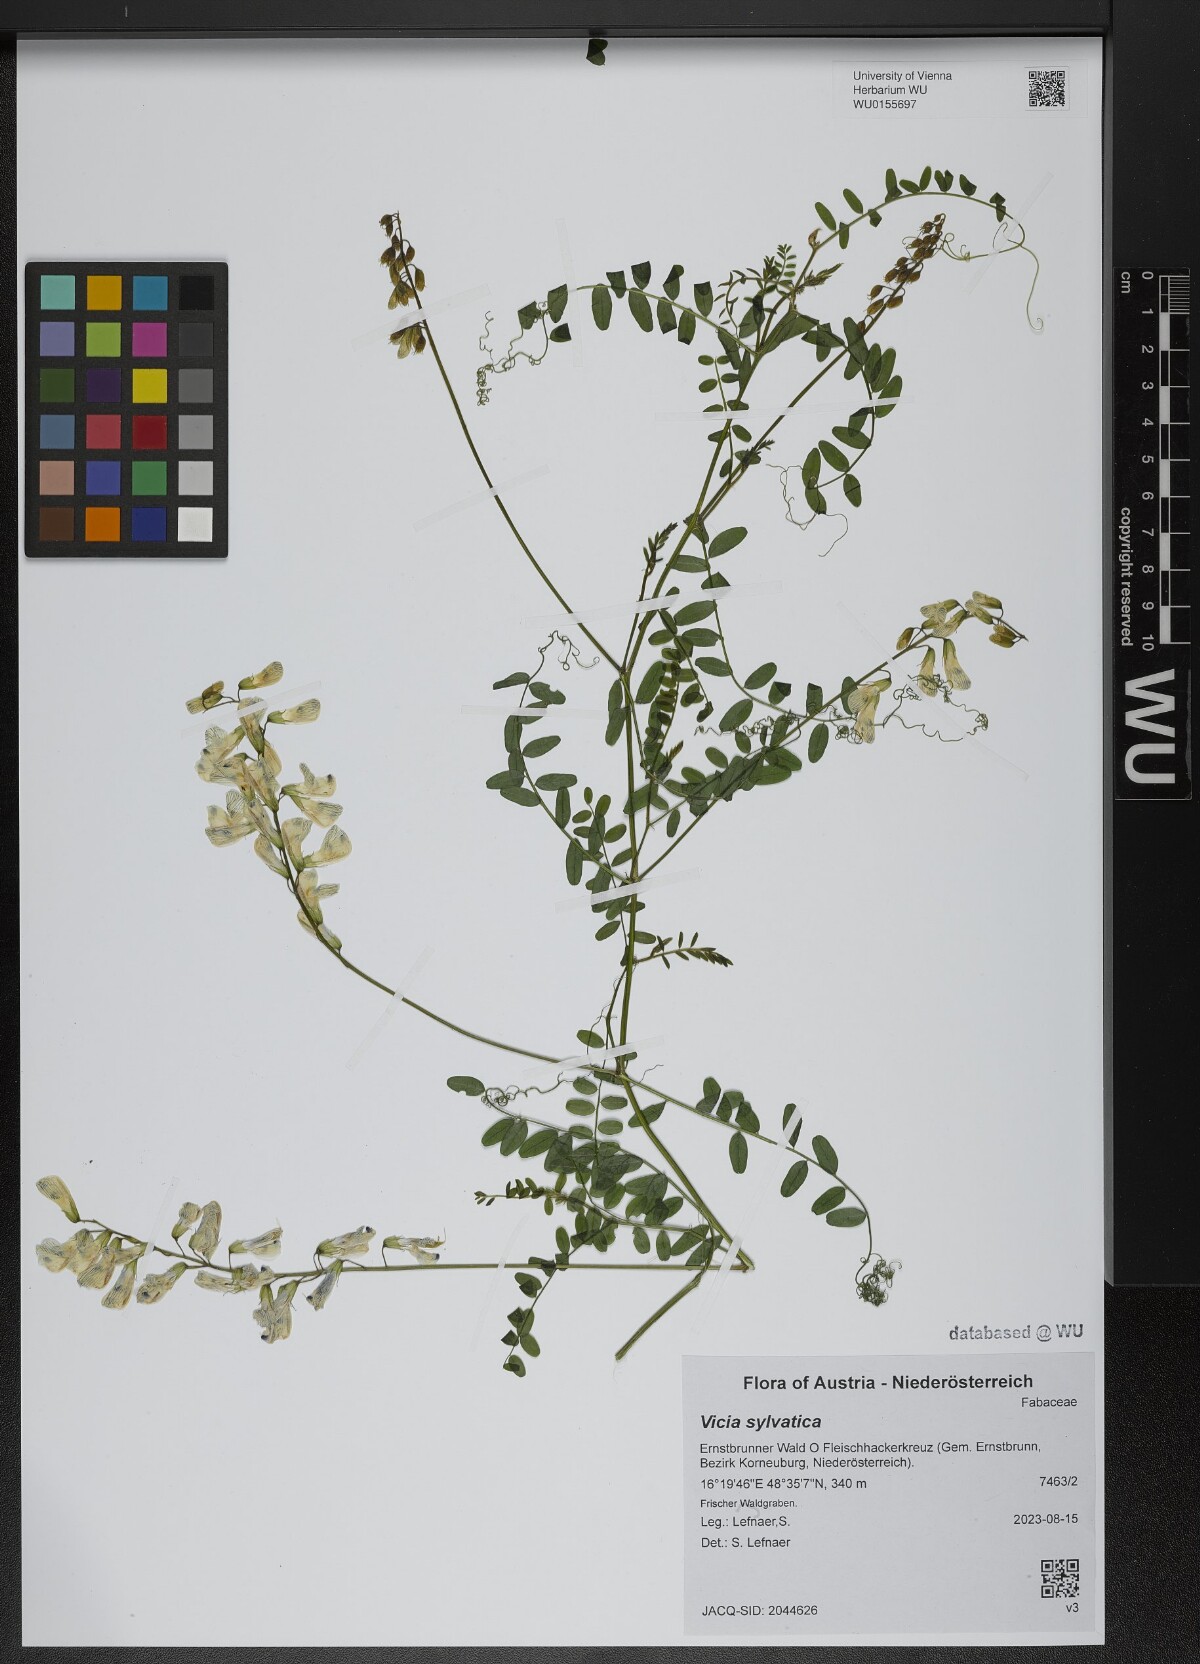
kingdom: Plantae
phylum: Tracheophyta
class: Magnoliopsida
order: Fabales
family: Fabaceae
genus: Vicia
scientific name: Vicia sylvatica
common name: Wood vetch
